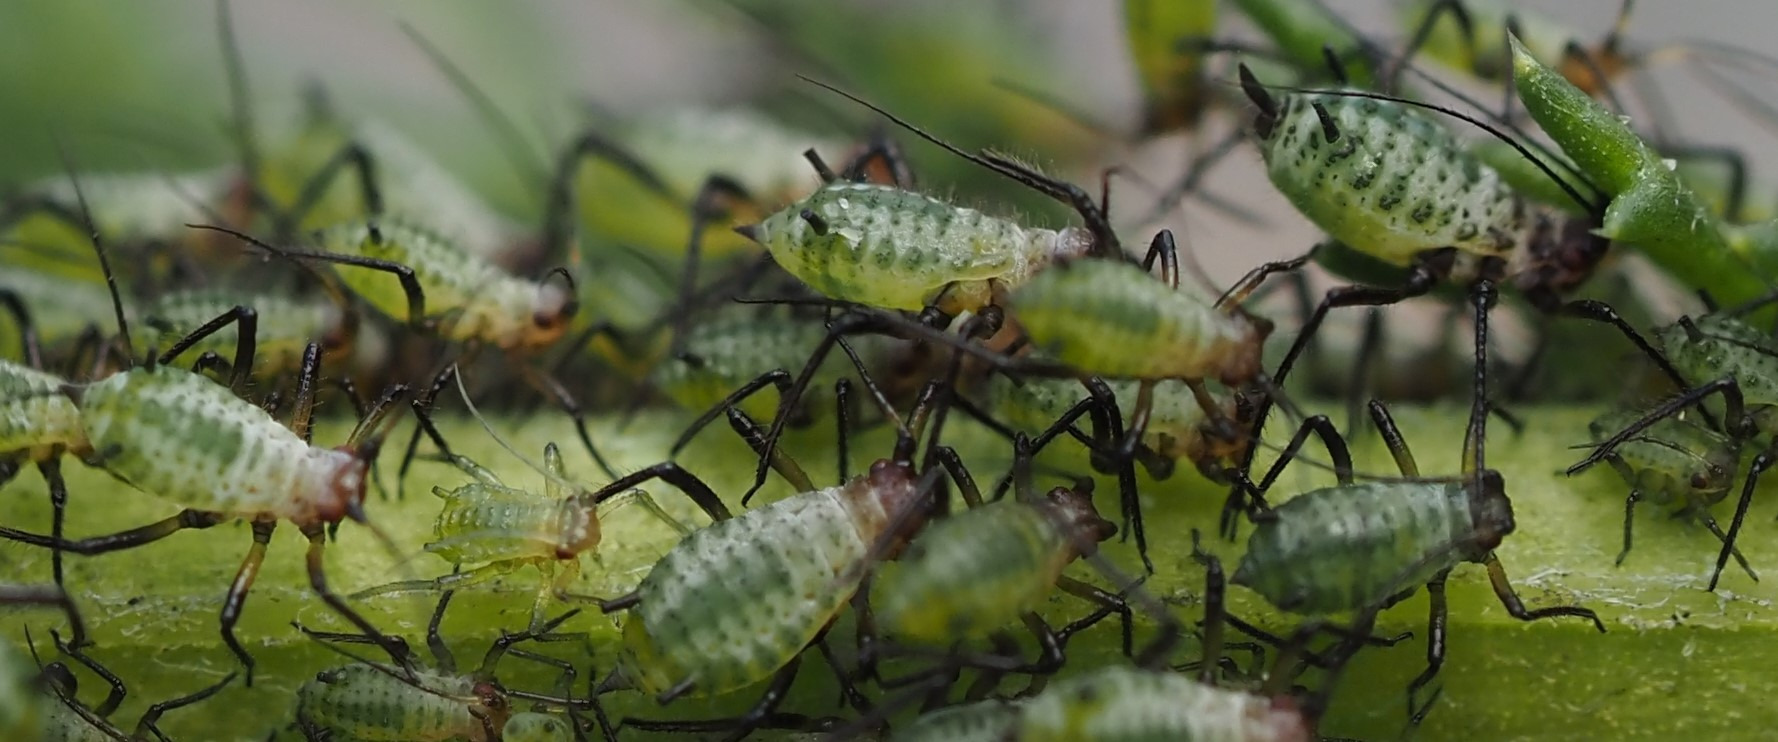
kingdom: Animalia
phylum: Arthropoda
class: Insecta
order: Hemiptera
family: Aphididae
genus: Macrosiphoniella
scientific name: Macrosiphoniella millefolii
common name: Røllikebladlus
